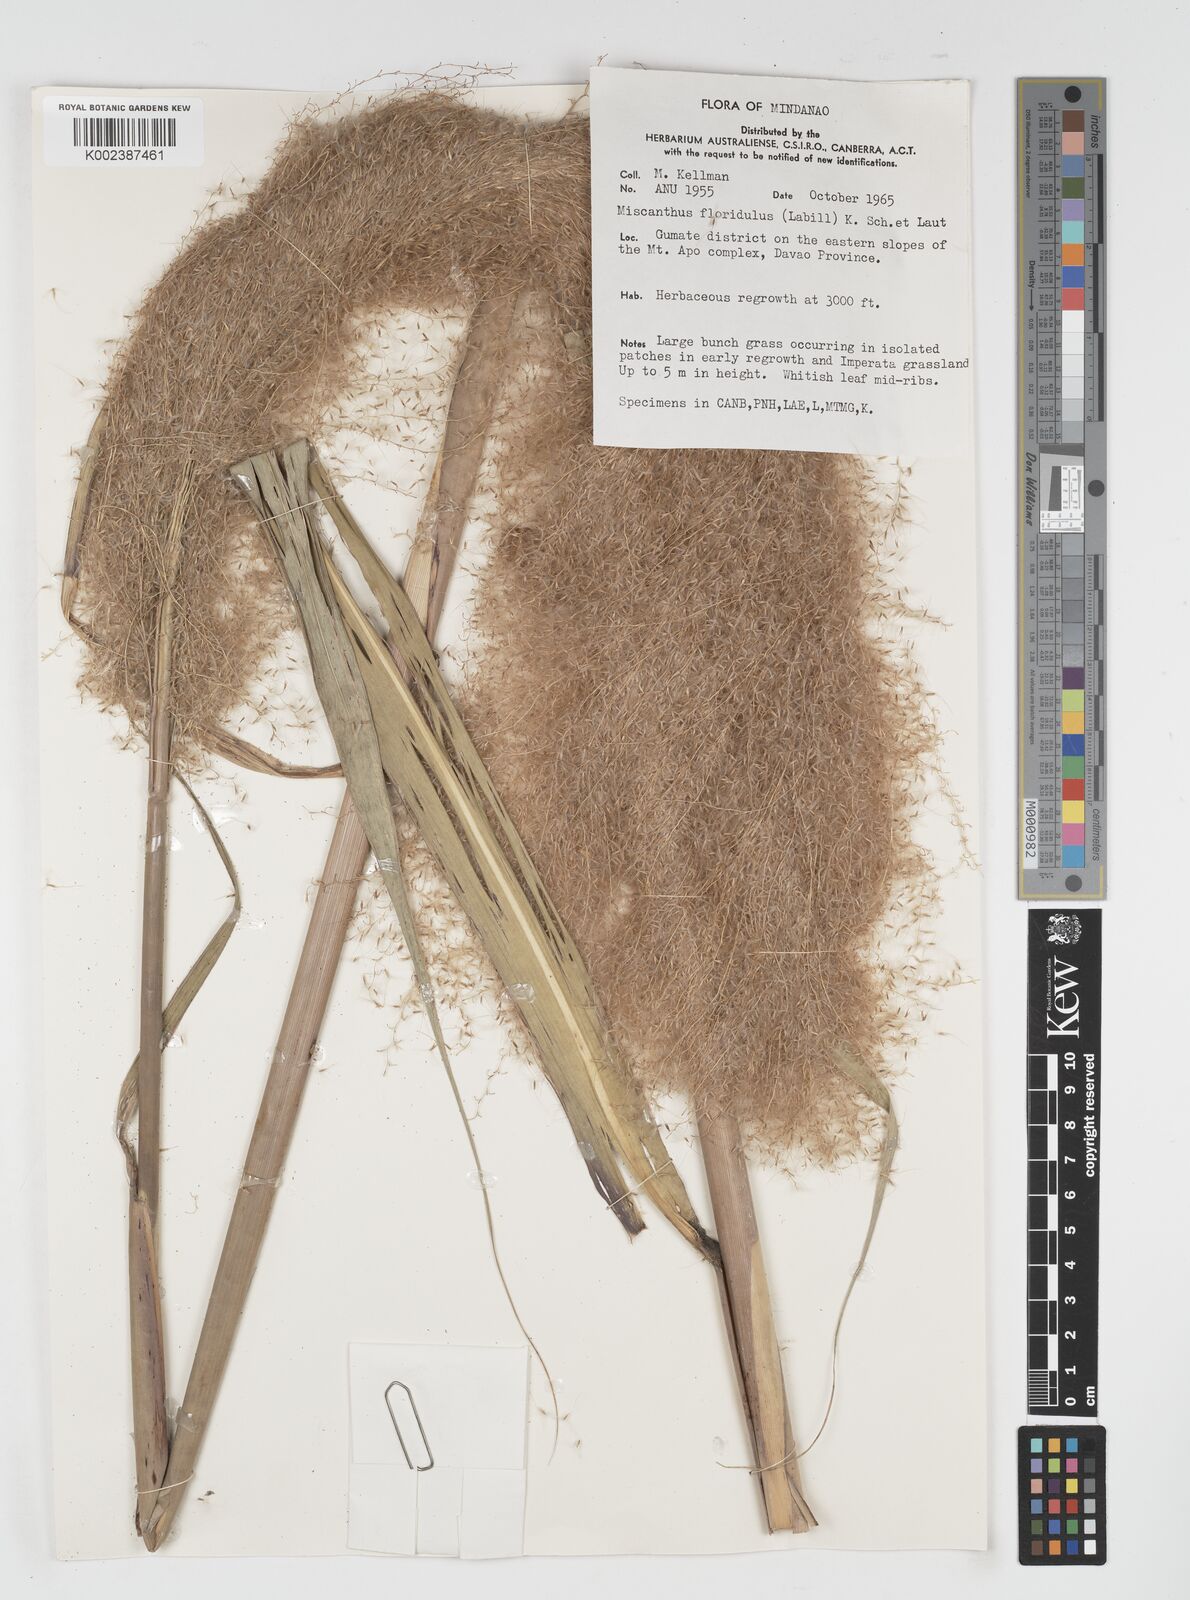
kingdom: Plantae
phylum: Tracheophyta
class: Liliopsida
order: Poales
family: Poaceae
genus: Miscanthus
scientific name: Miscanthus floridulus
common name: Pacific island silvergrass
